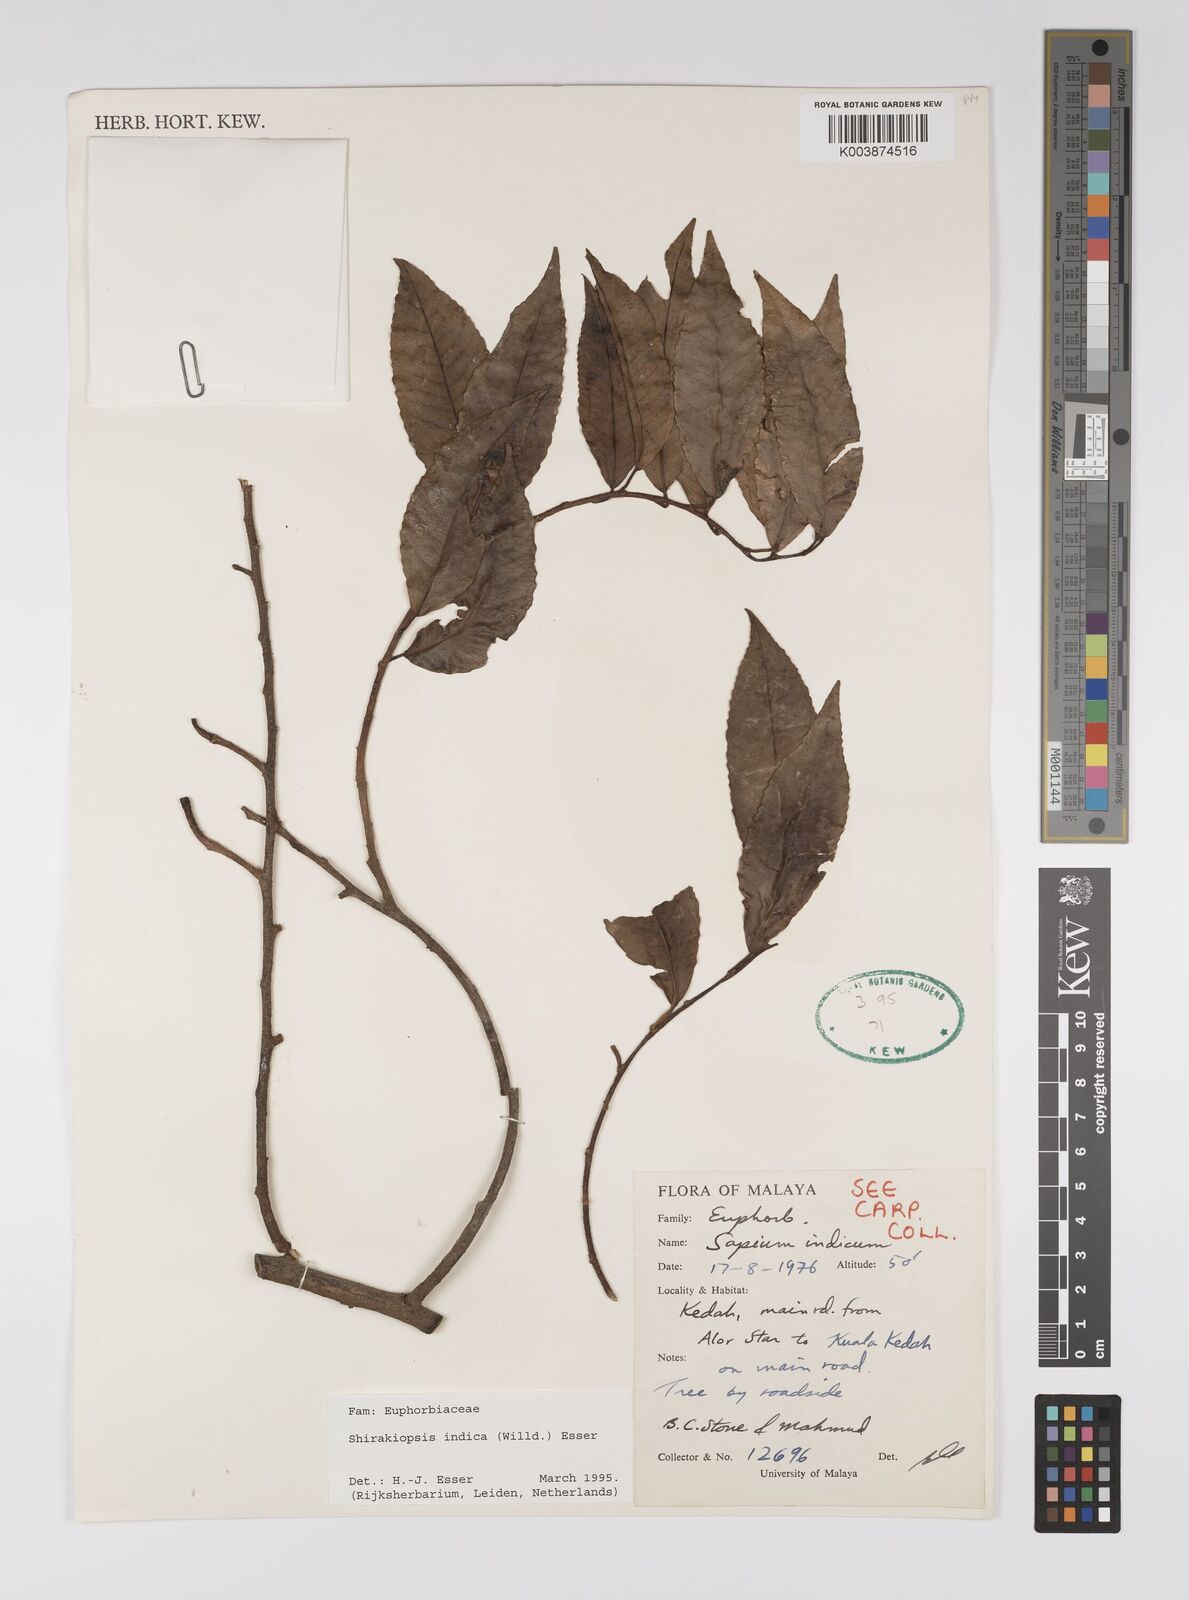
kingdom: Plantae
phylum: Tracheophyta
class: Magnoliopsida
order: Malpighiales
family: Euphorbiaceae
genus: Shirakiopsis
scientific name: Shirakiopsis indica
